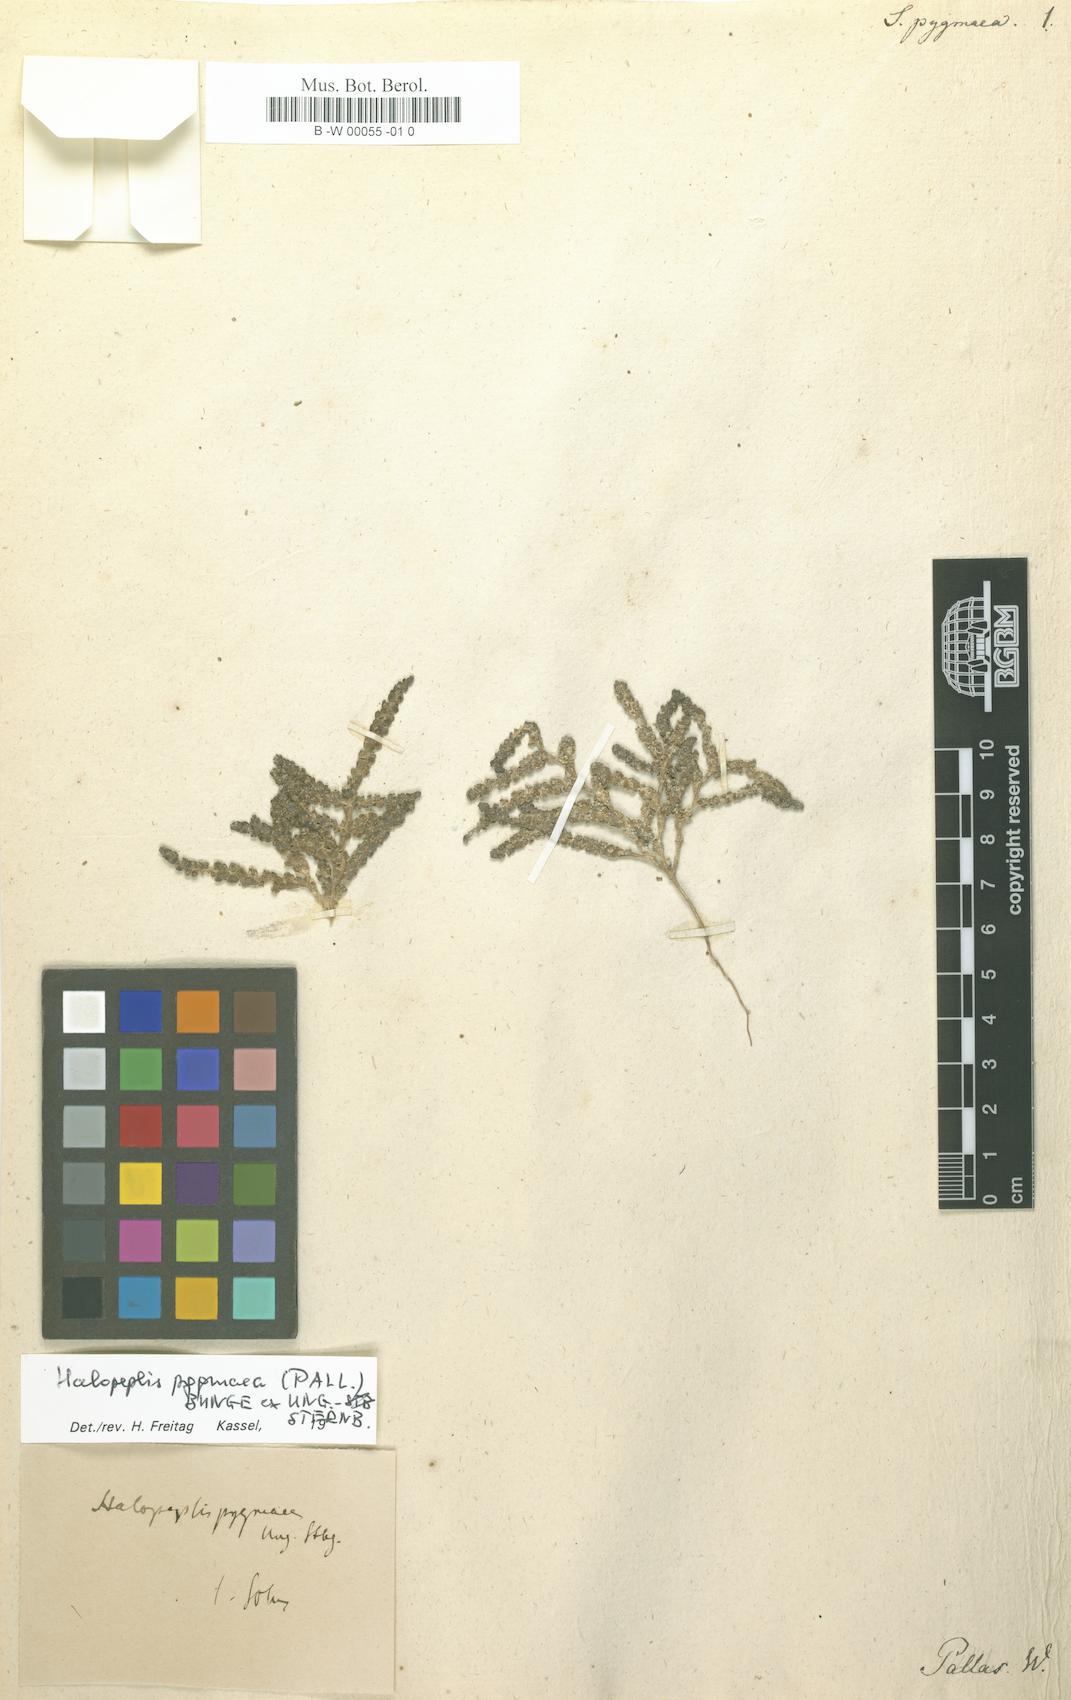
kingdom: Plantae
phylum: Tracheophyta
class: Magnoliopsida
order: Caryophyllales
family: Amaranthaceae
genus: Halopeplis
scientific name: Halopeplis pygmaea
